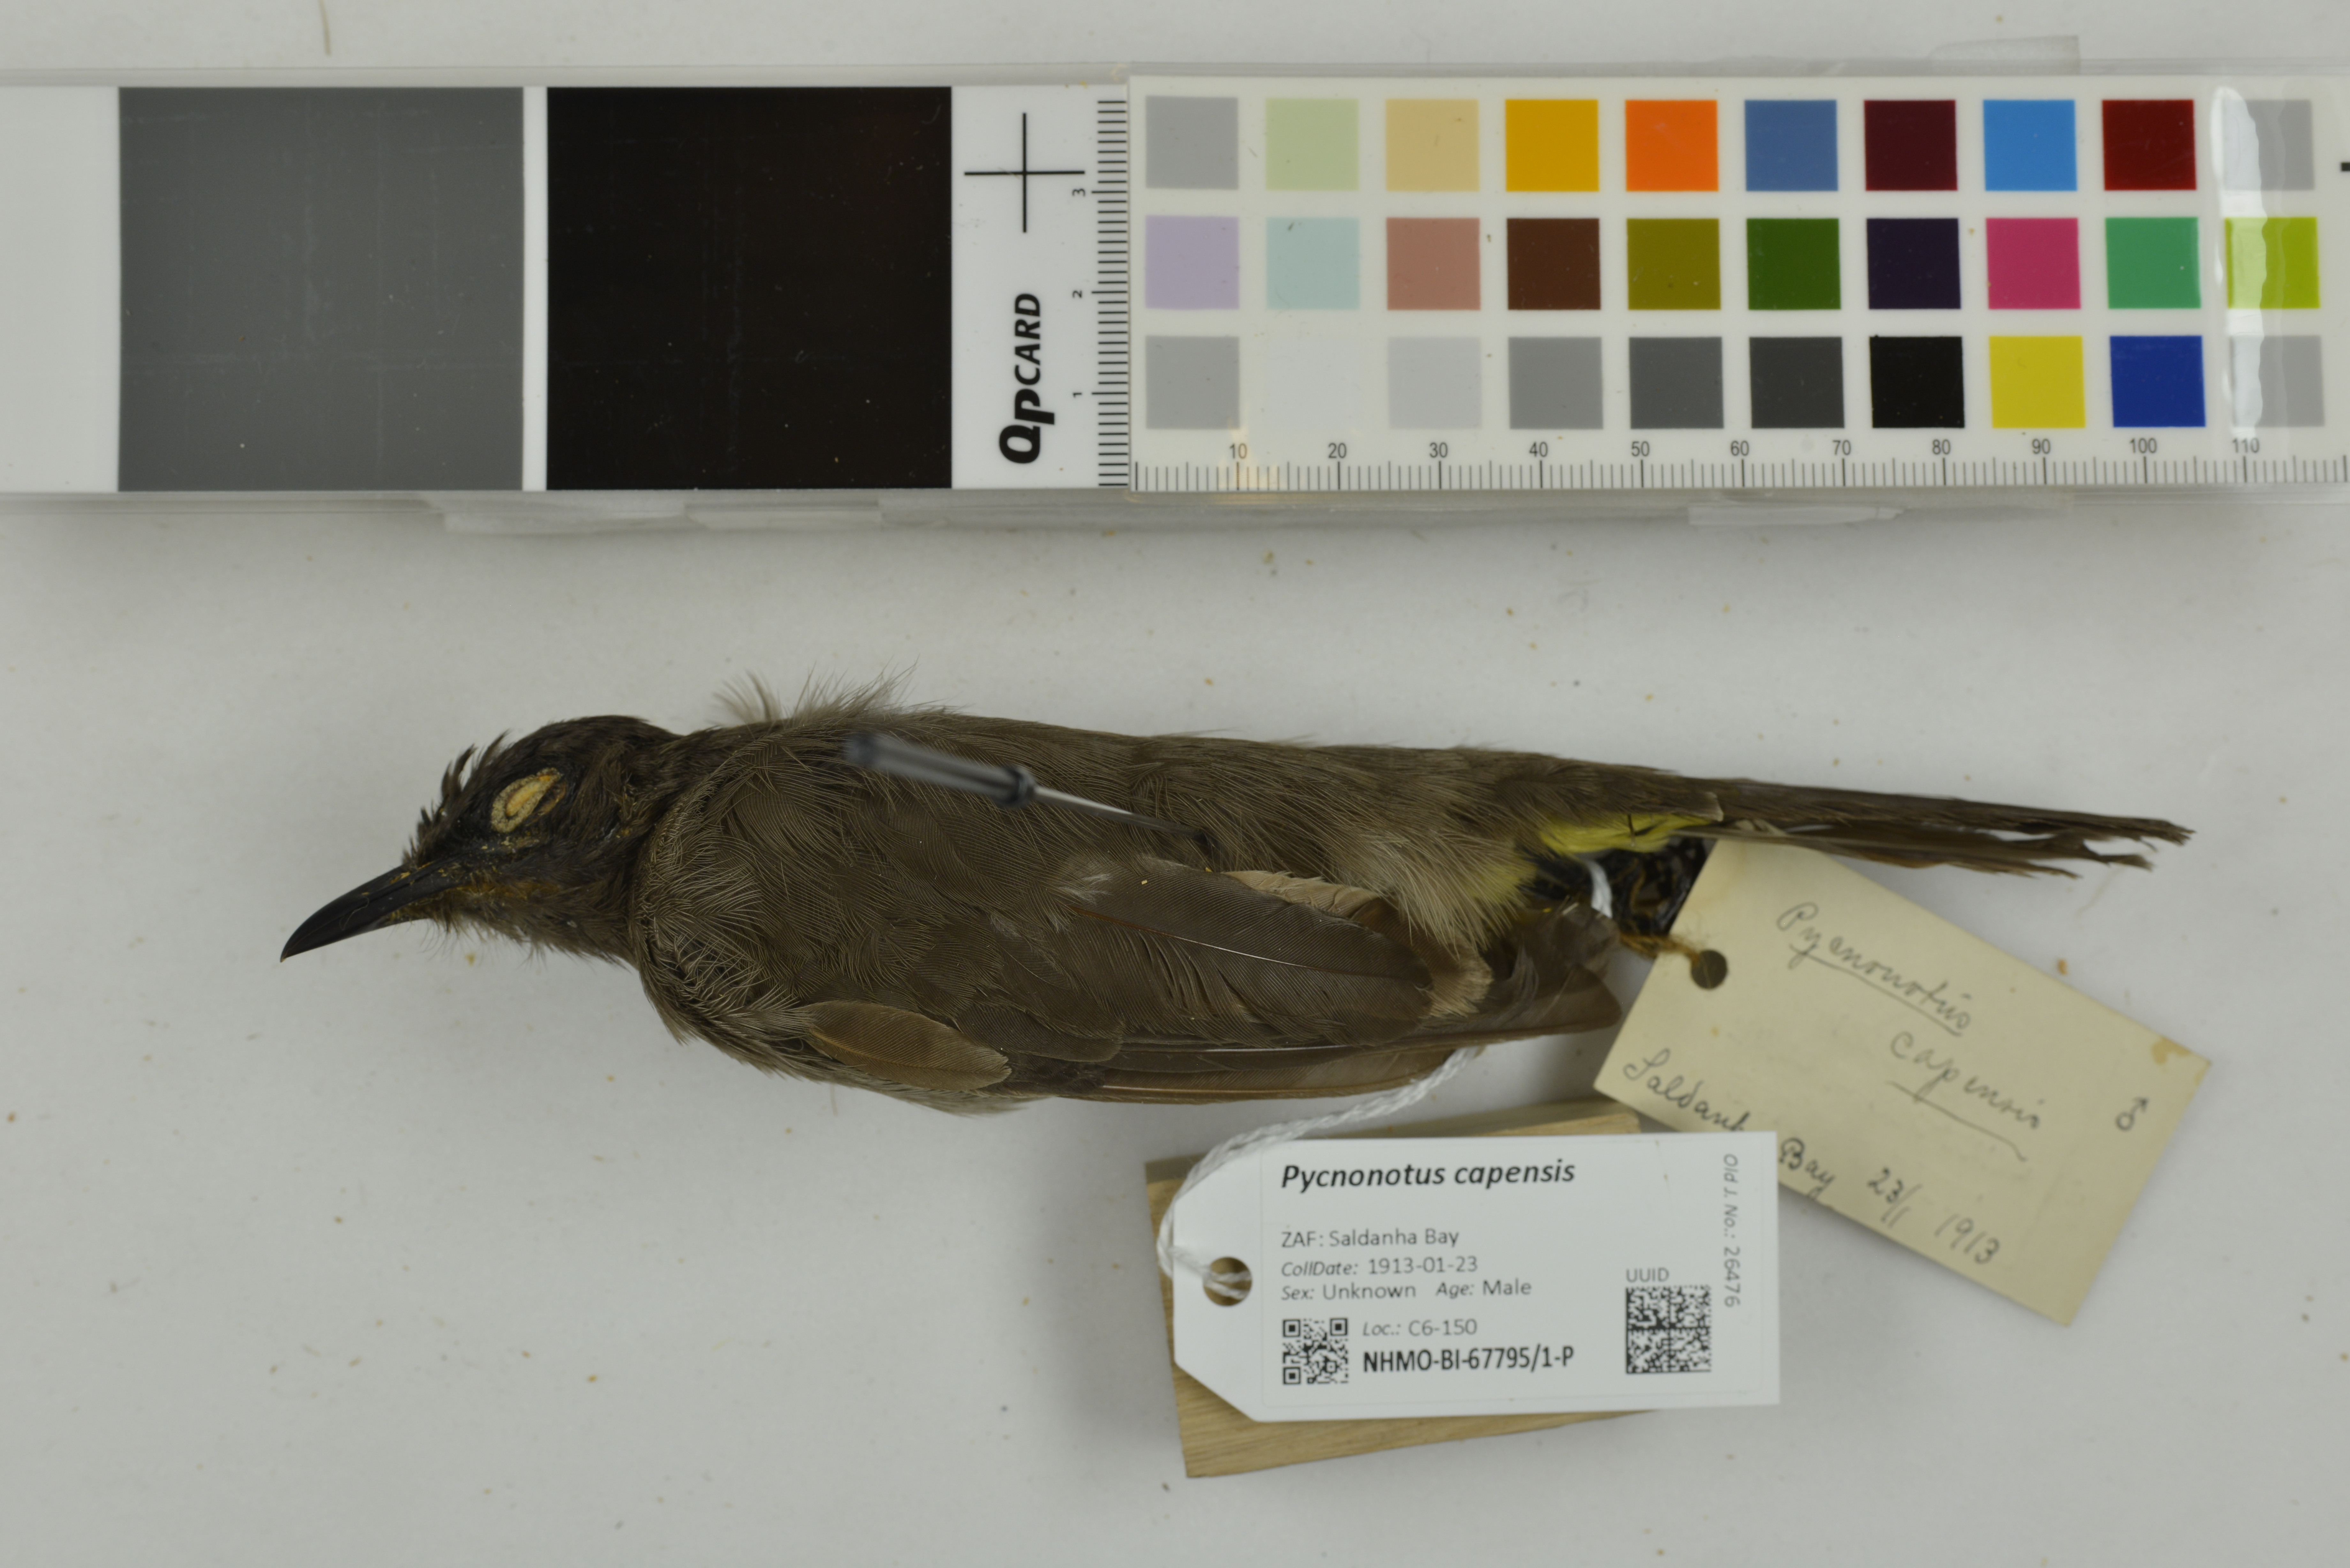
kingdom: Animalia
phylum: Chordata
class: Aves
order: Passeriformes
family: Pycnonotidae
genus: Pycnonotus
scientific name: Pycnonotus capensis
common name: Cape bulbul
